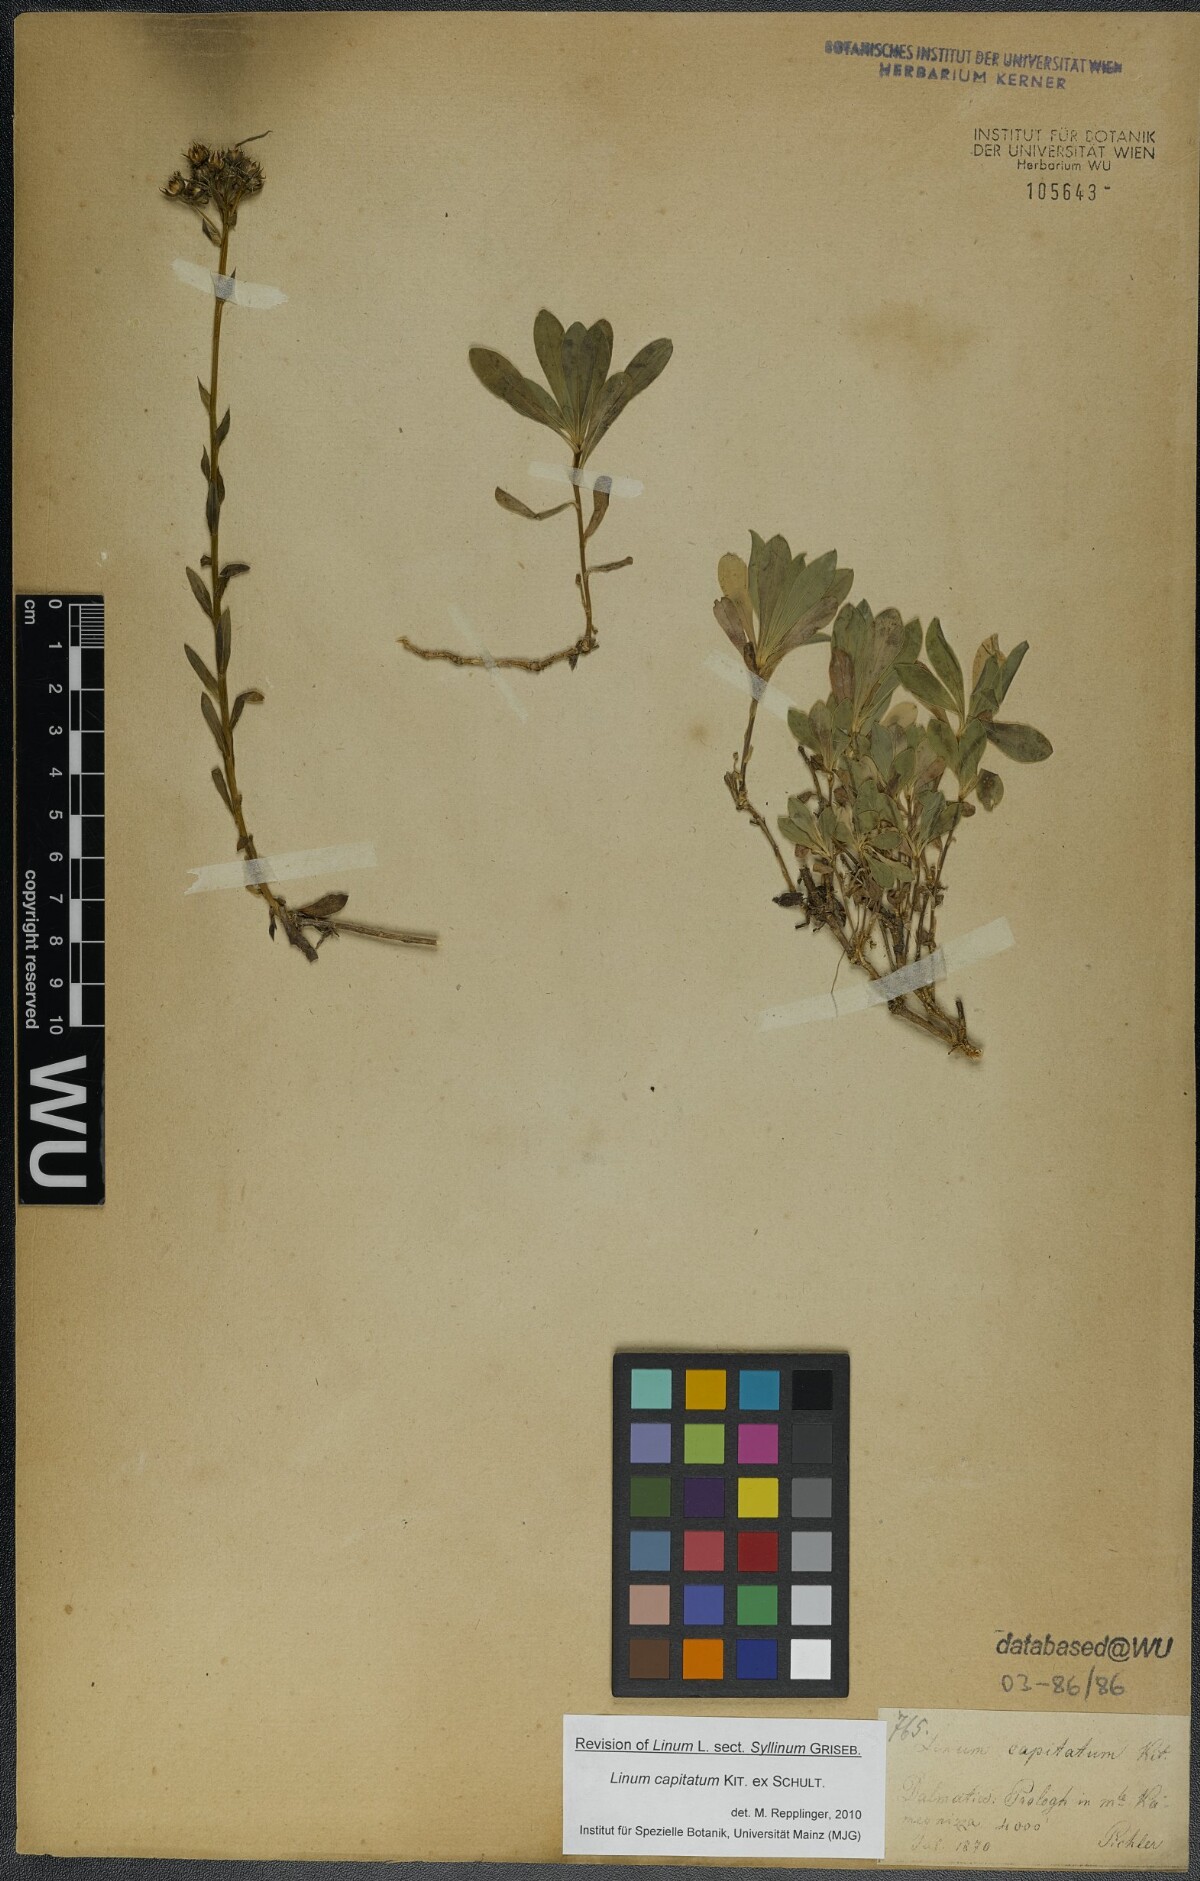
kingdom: Plantae
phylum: Tracheophyta
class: Magnoliopsida
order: Malpighiales
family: Linaceae
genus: Linum
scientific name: Linum capitatum
